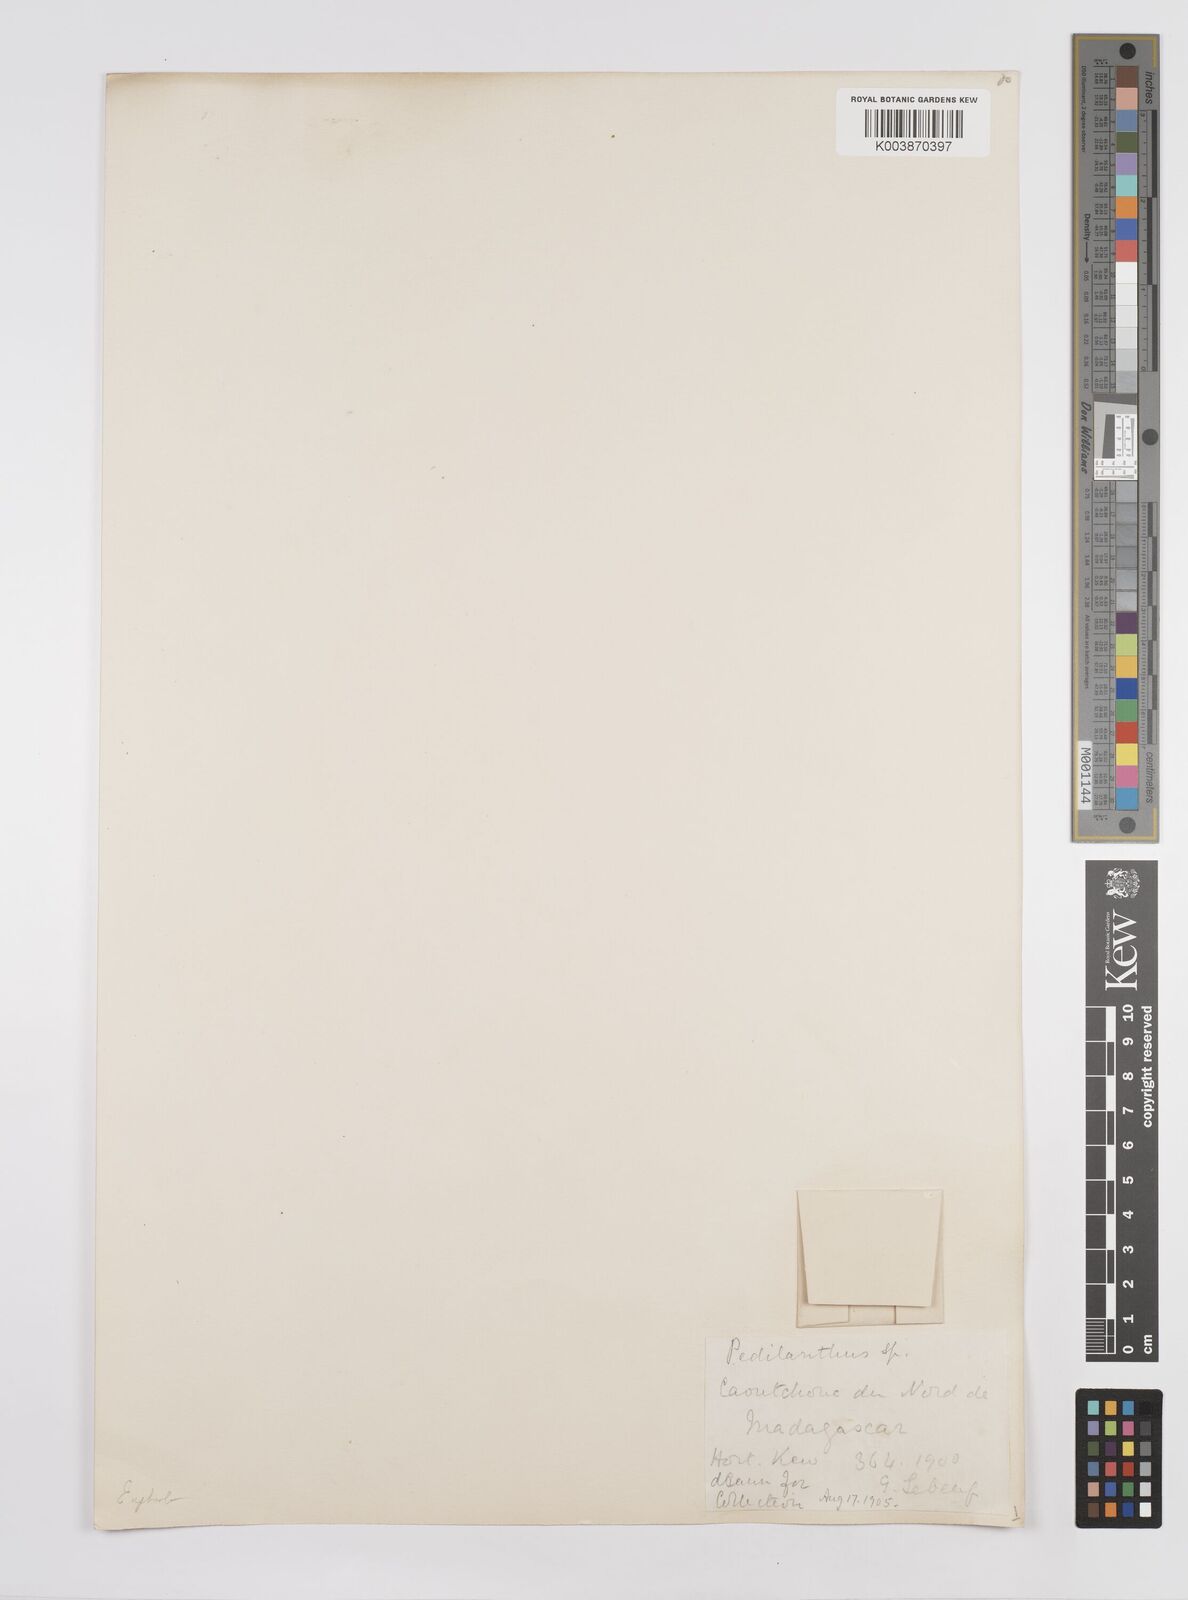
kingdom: Plantae
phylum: Tracheophyta
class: Magnoliopsida
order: Malpighiales
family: Euphorbiaceae
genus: Pedilanthus
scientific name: Pedilanthus
